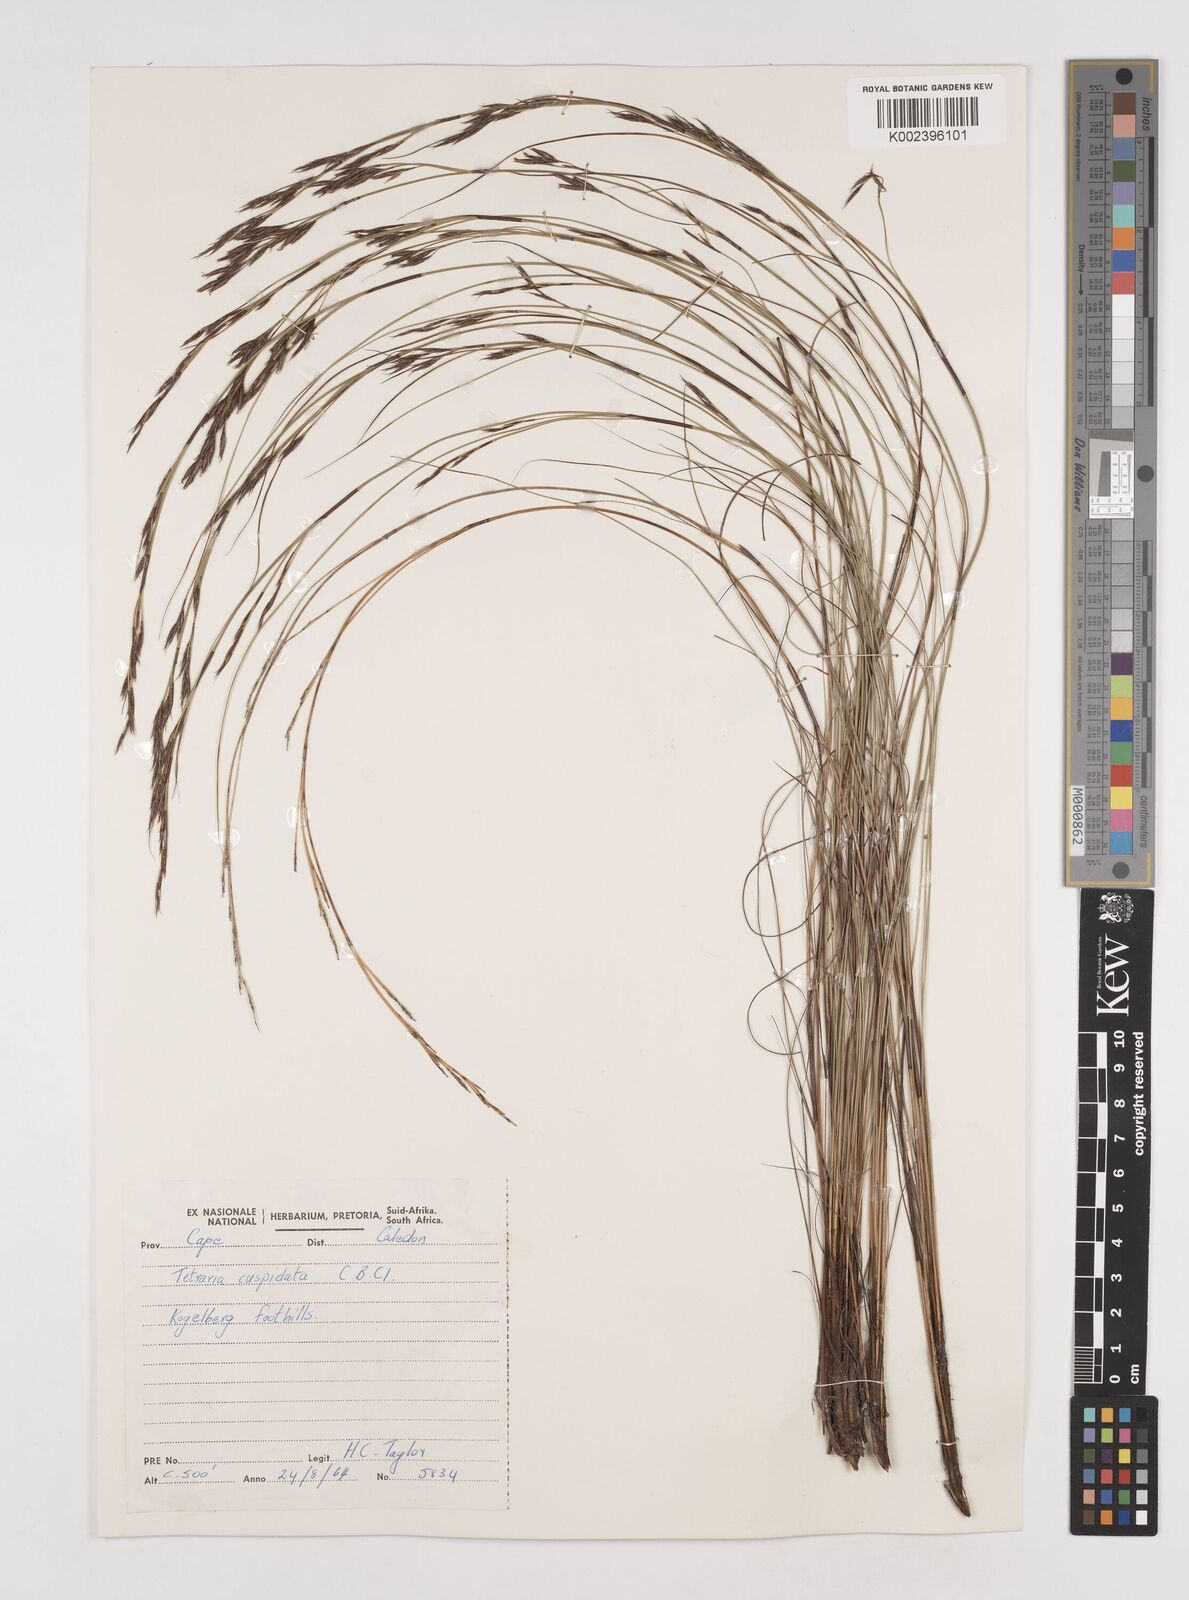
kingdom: Plantae
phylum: Tracheophyta
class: Liliopsida
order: Poales
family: Cyperaceae
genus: Tetraria
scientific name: Tetraria pleosticha
